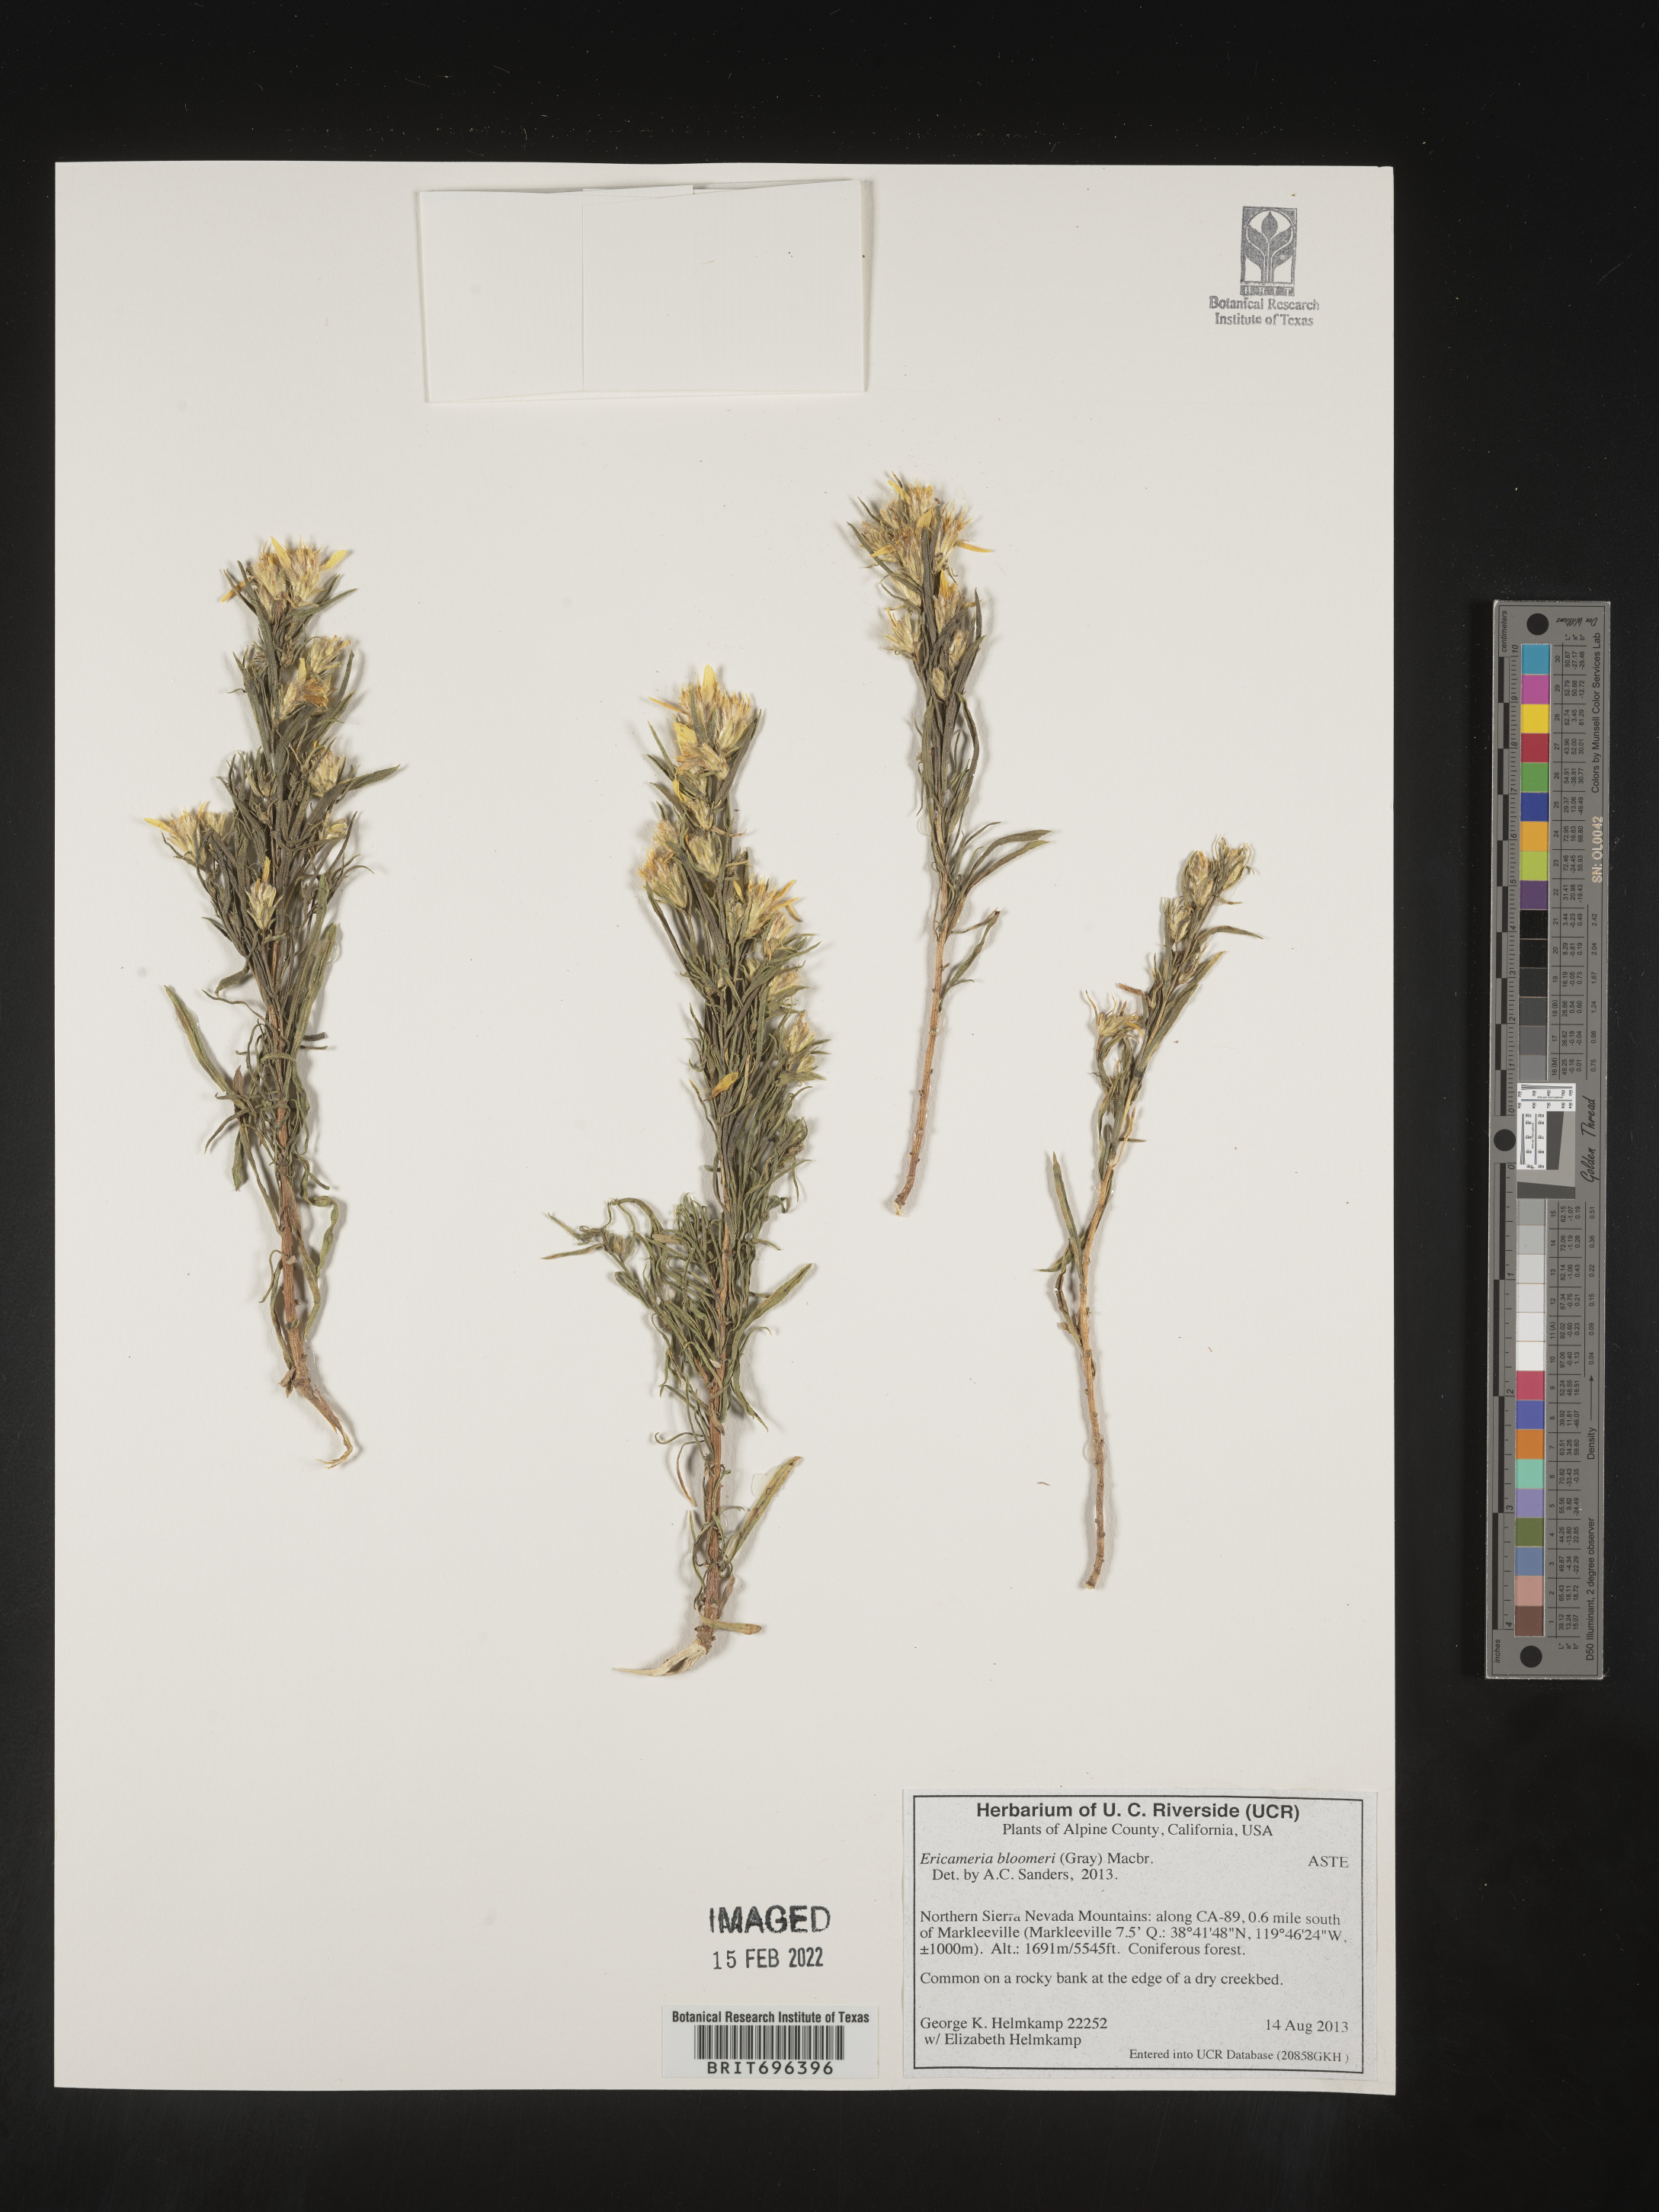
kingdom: Plantae
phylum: Tracheophyta
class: Magnoliopsida
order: Asterales
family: Asteraceae
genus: Ericameria
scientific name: Ericameria bloomeri
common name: Bloomer's goldenbush
